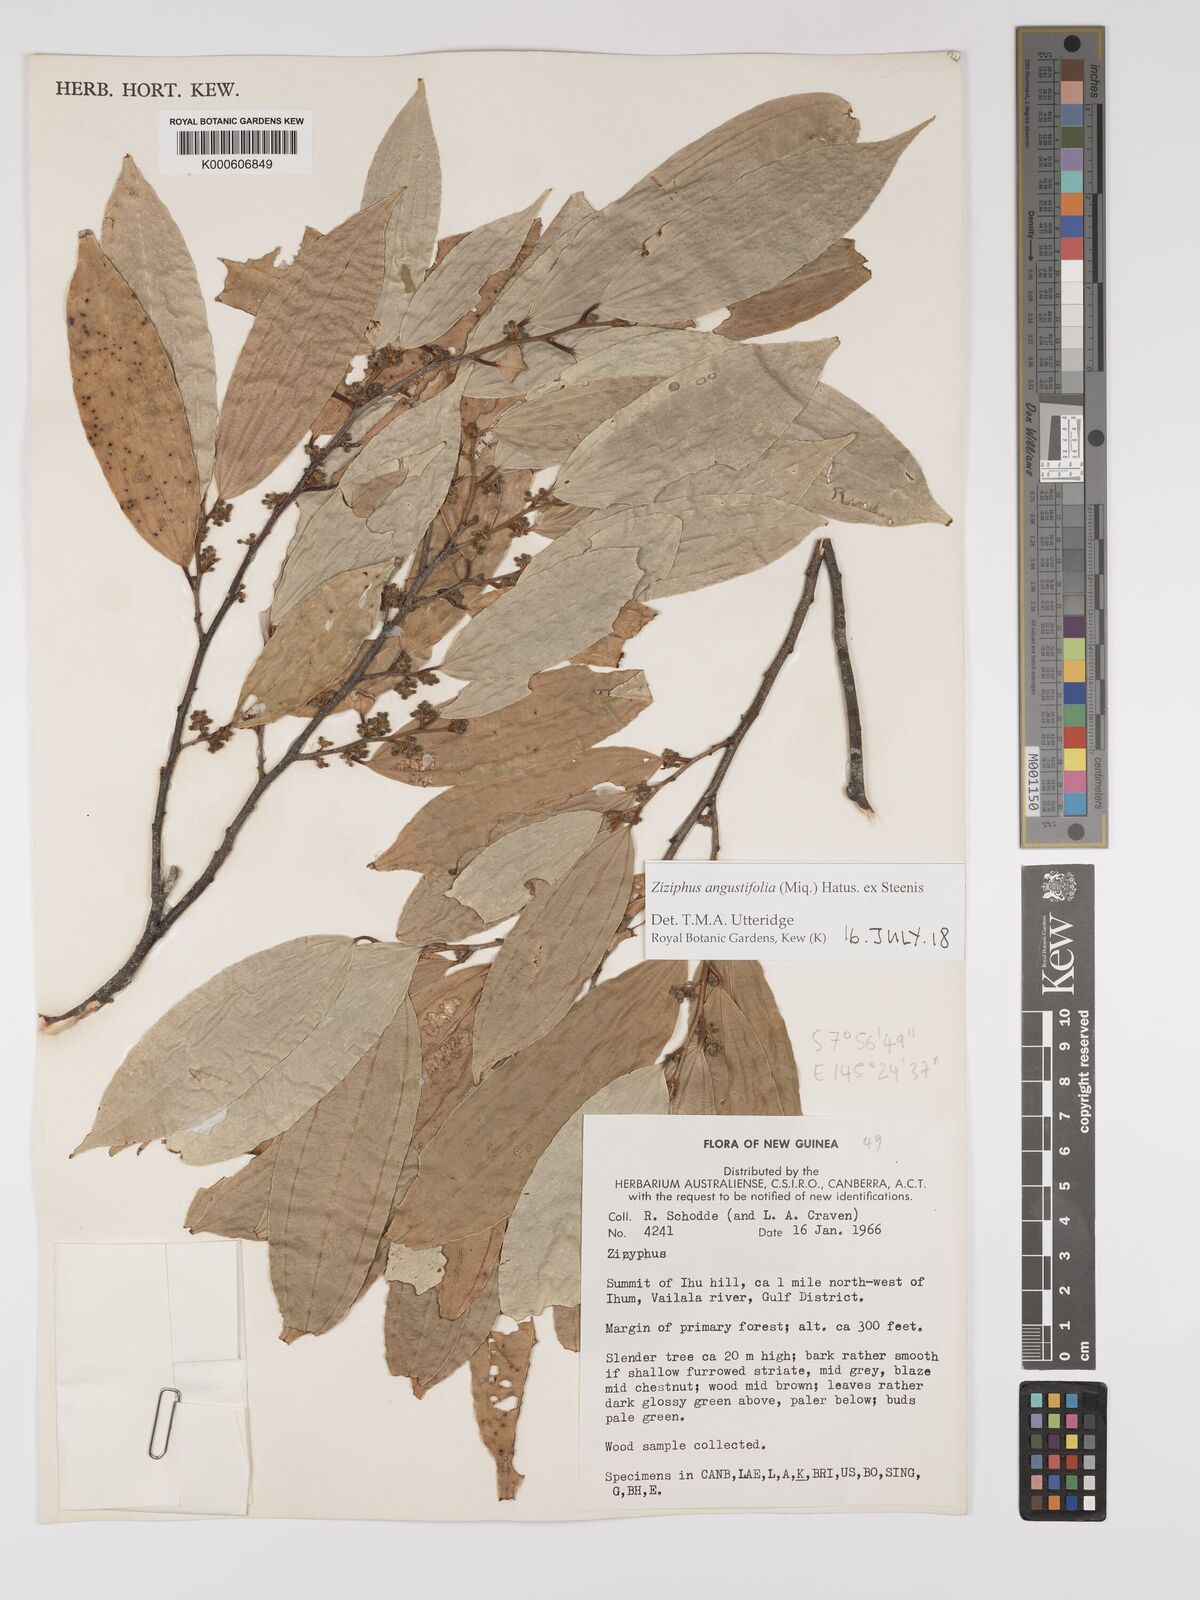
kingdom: Plantae
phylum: Tracheophyta
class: Magnoliopsida
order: Rosales
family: Rhamnaceae
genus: Ziziphus
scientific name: Ziziphus angustifolia
